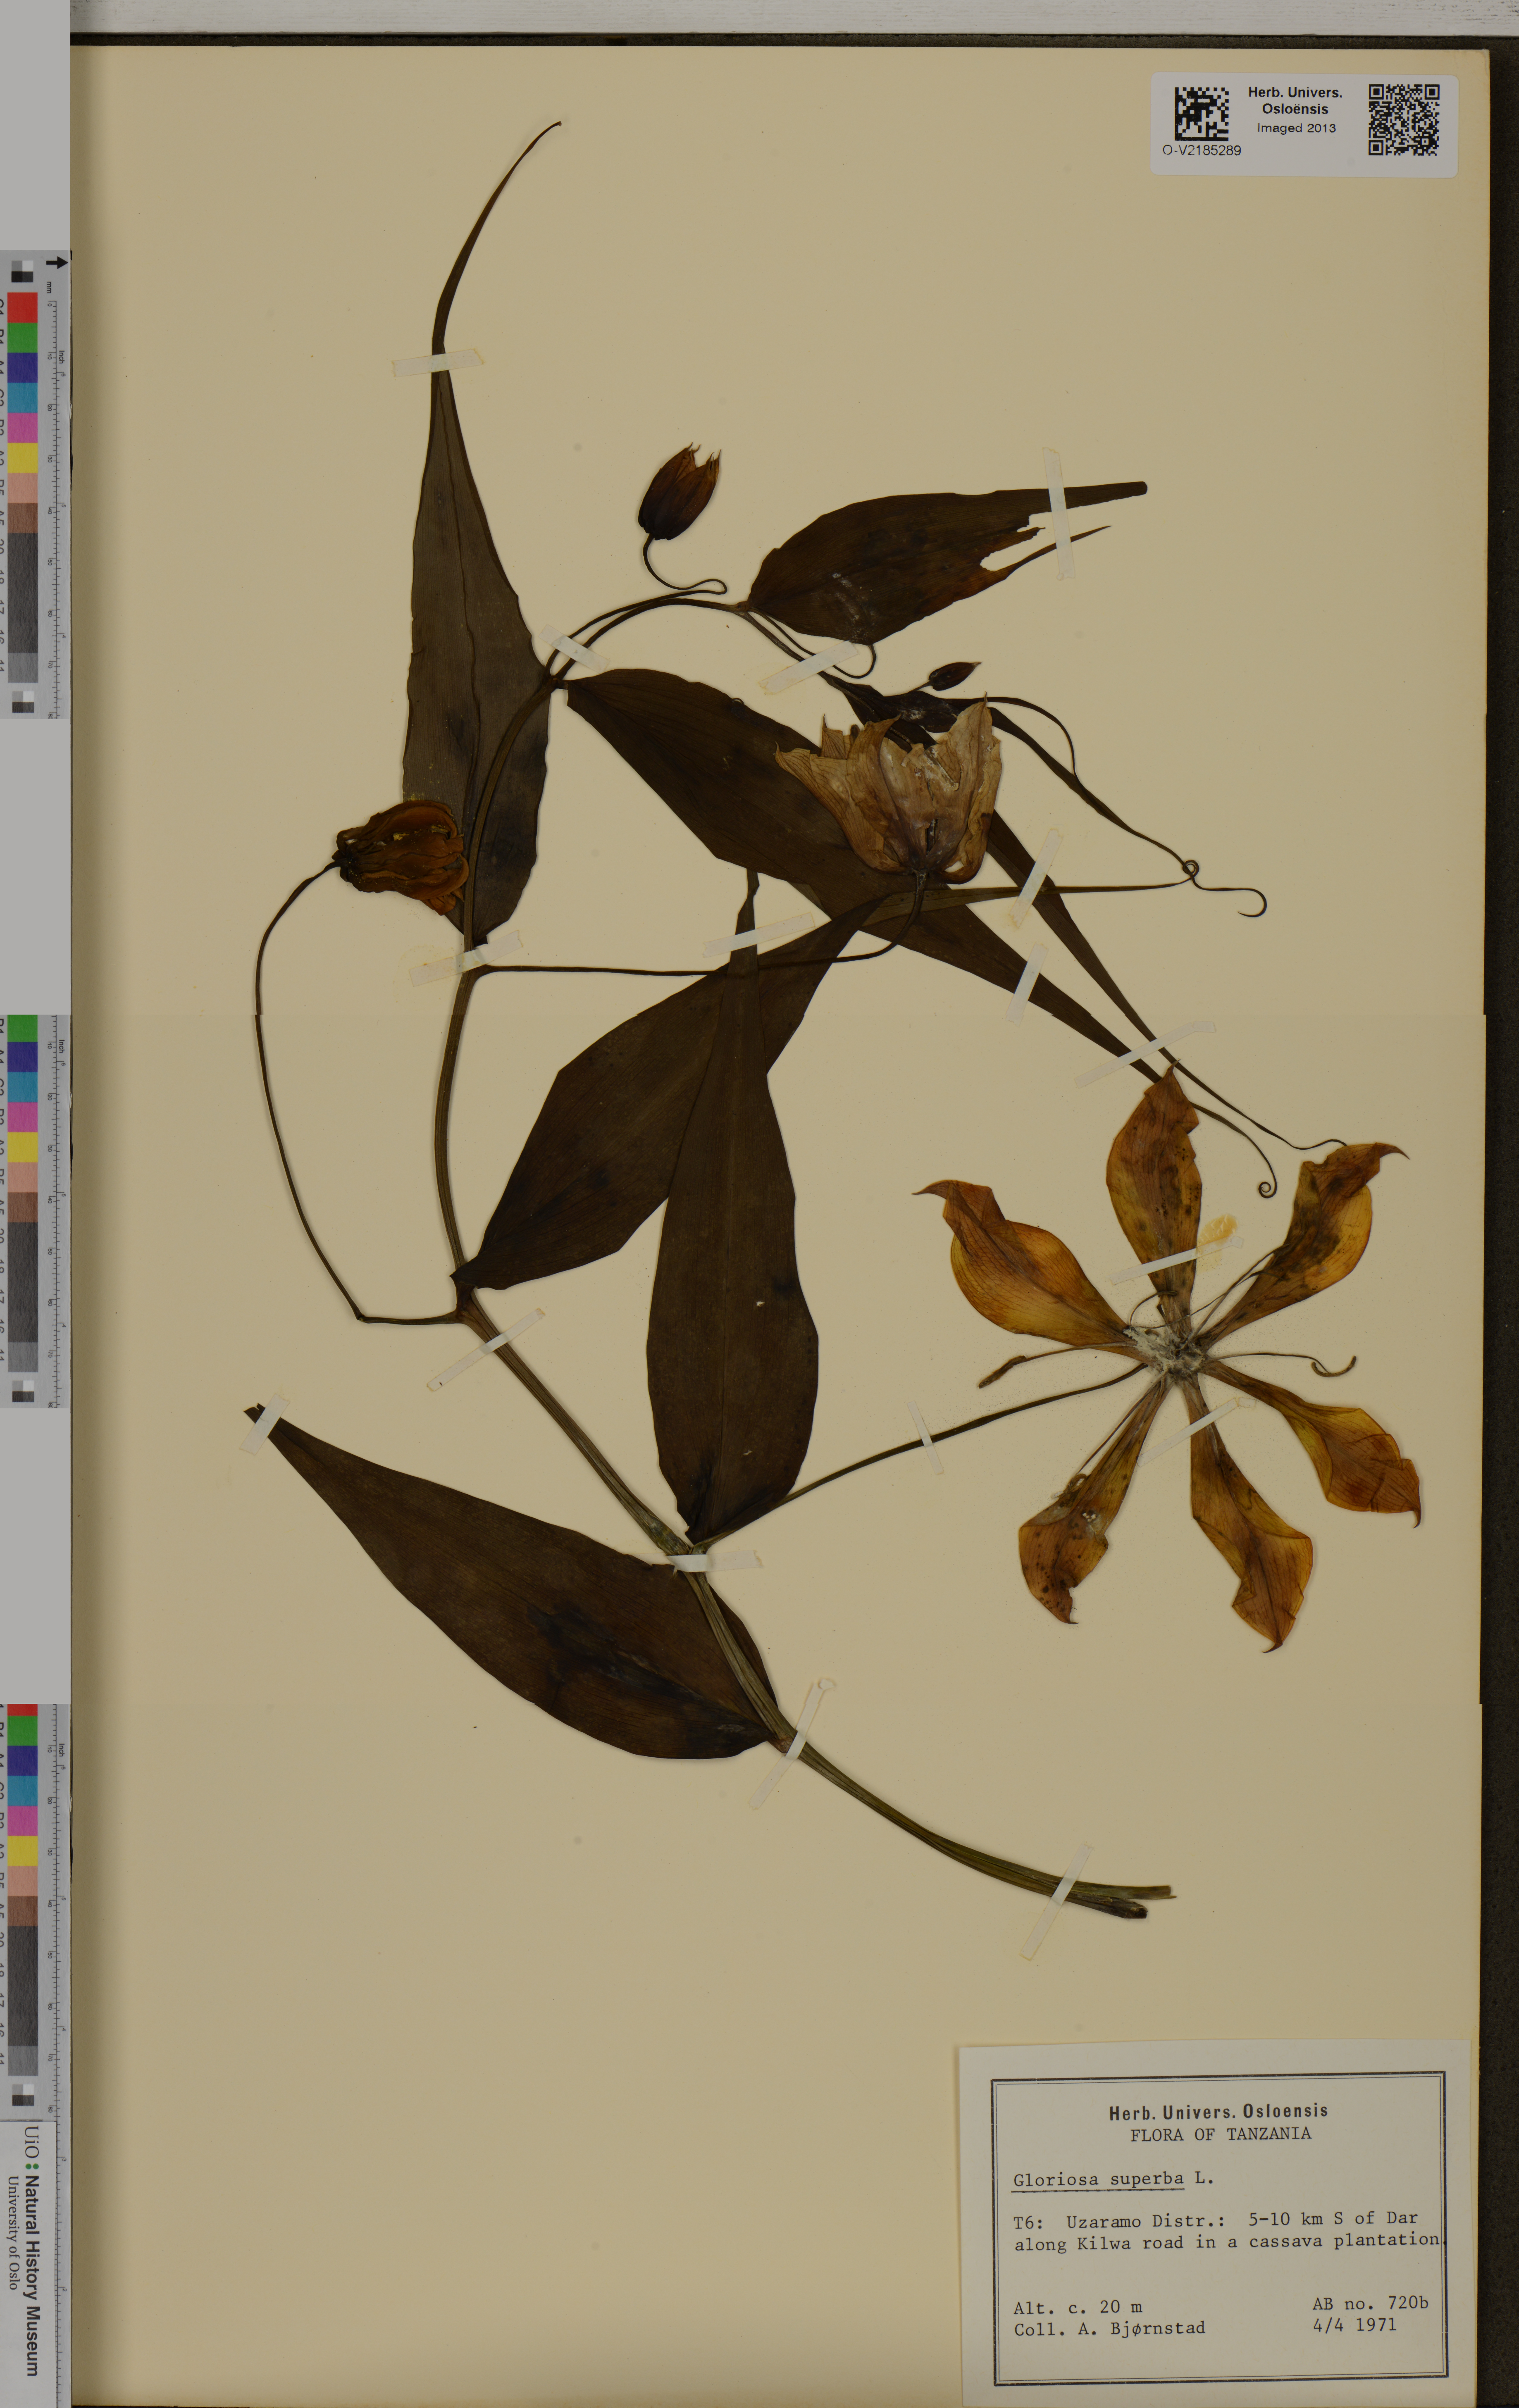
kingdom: Plantae
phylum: Tracheophyta
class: Liliopsida
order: Liliales
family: Colchicaceae
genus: Gloriosa
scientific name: Gloriosa superba
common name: Flame lily
